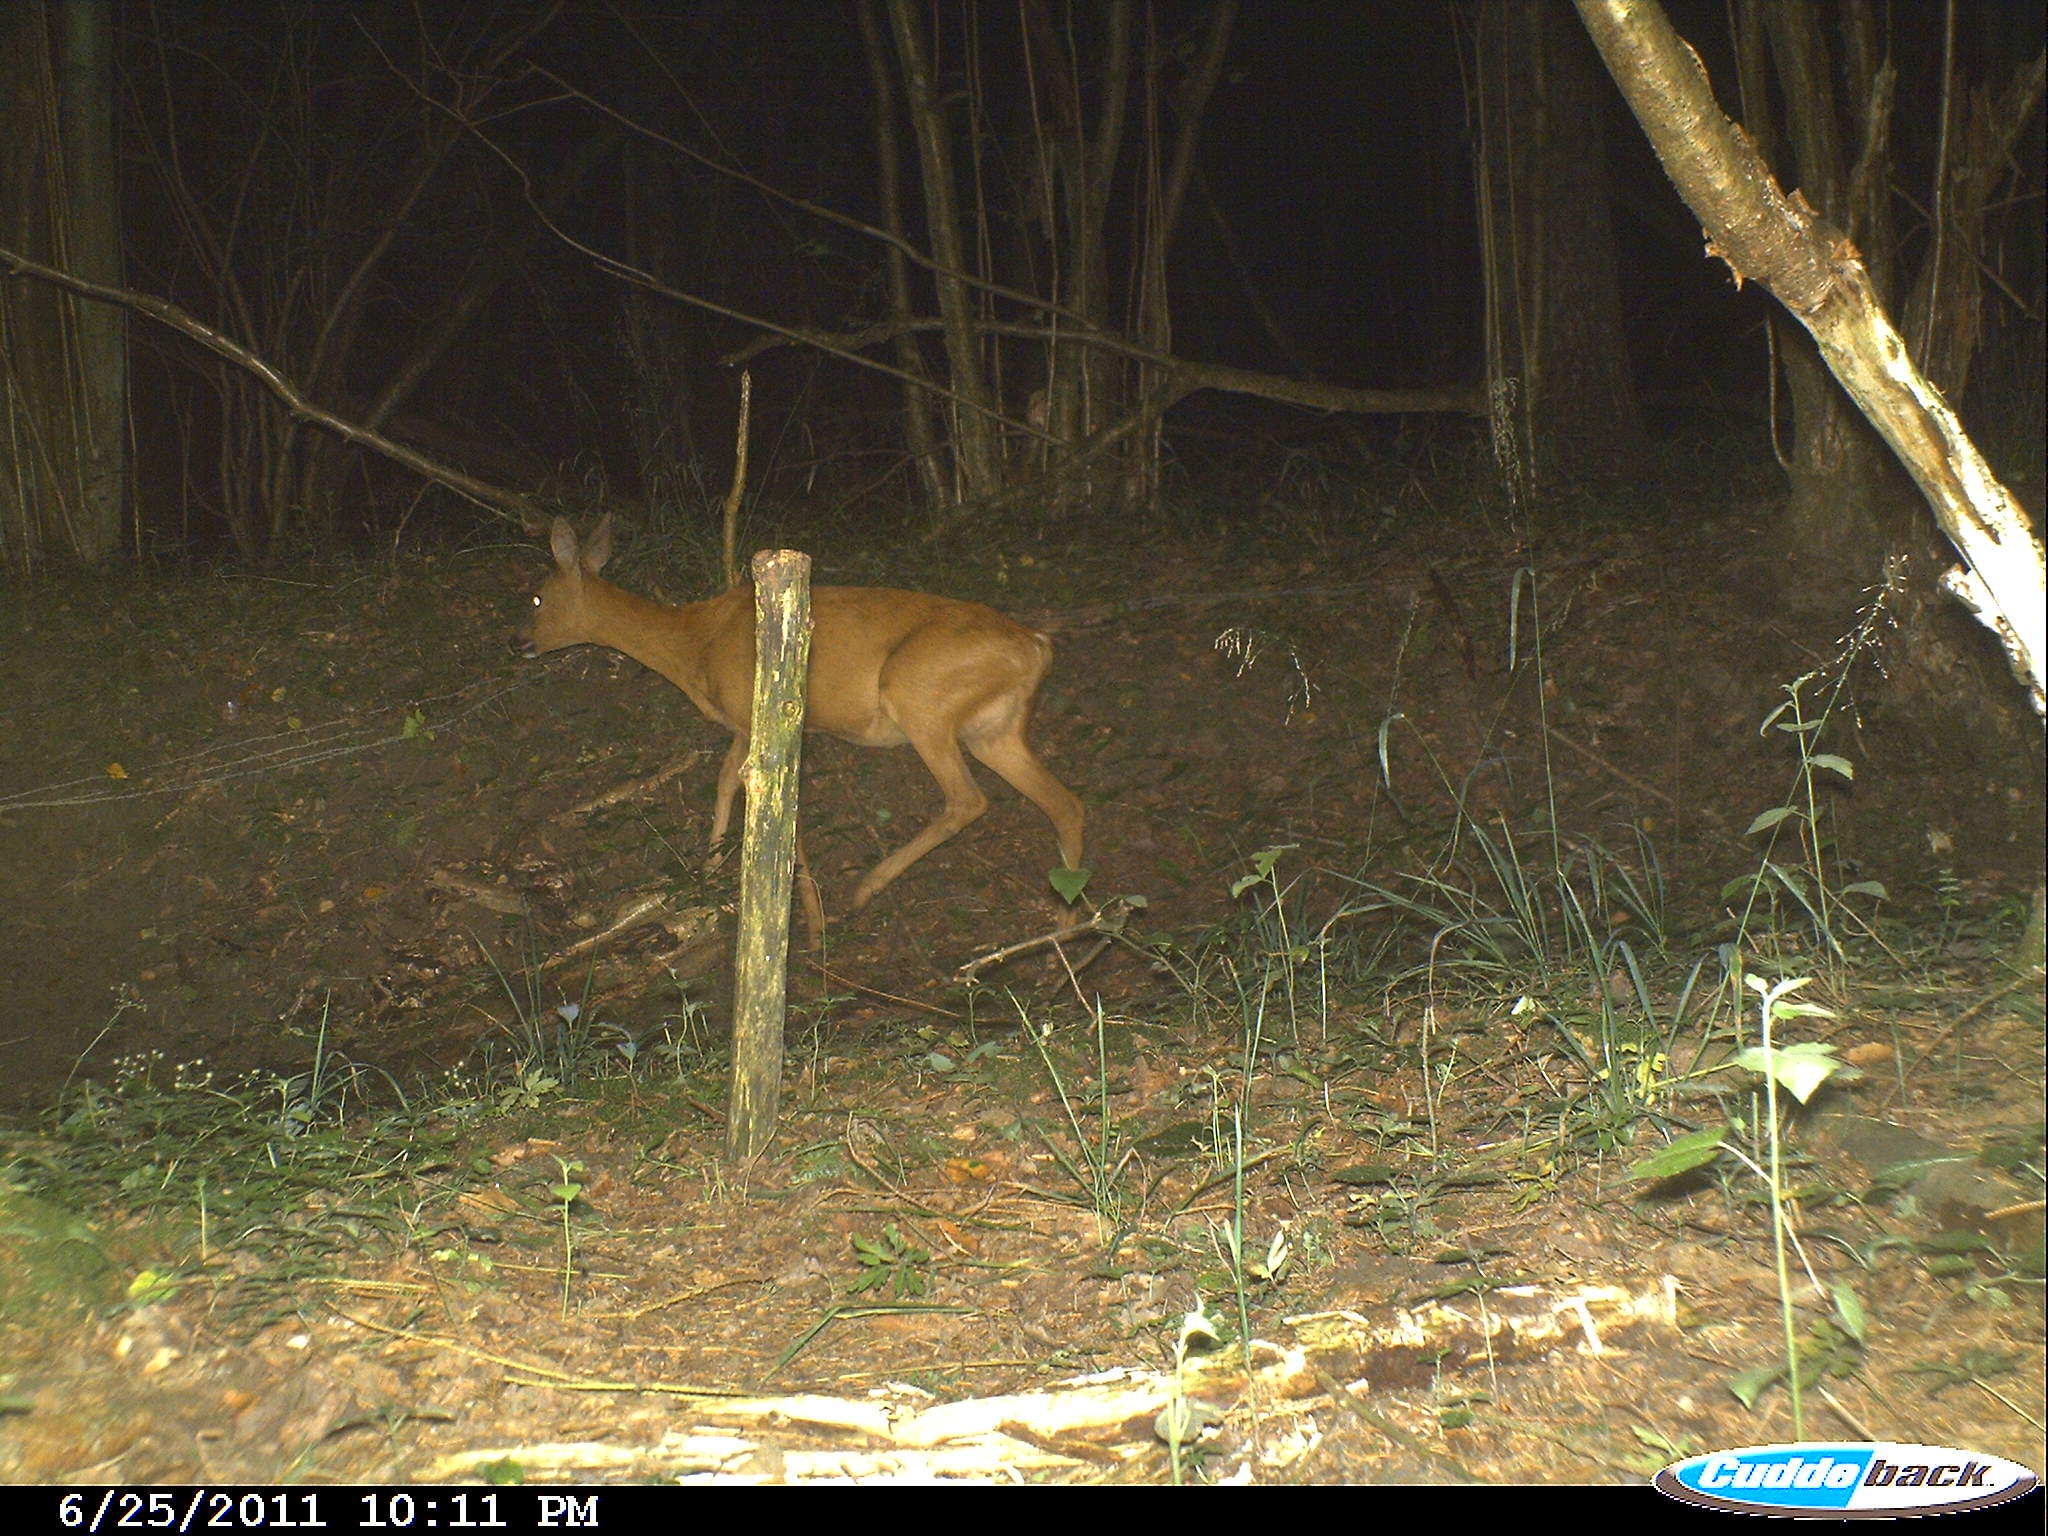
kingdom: Animalia
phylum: Chordata
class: Mammalia
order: Artiodactyla
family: Cervidae
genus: Capreolus
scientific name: Capreolus capreolus
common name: Western roe deer
